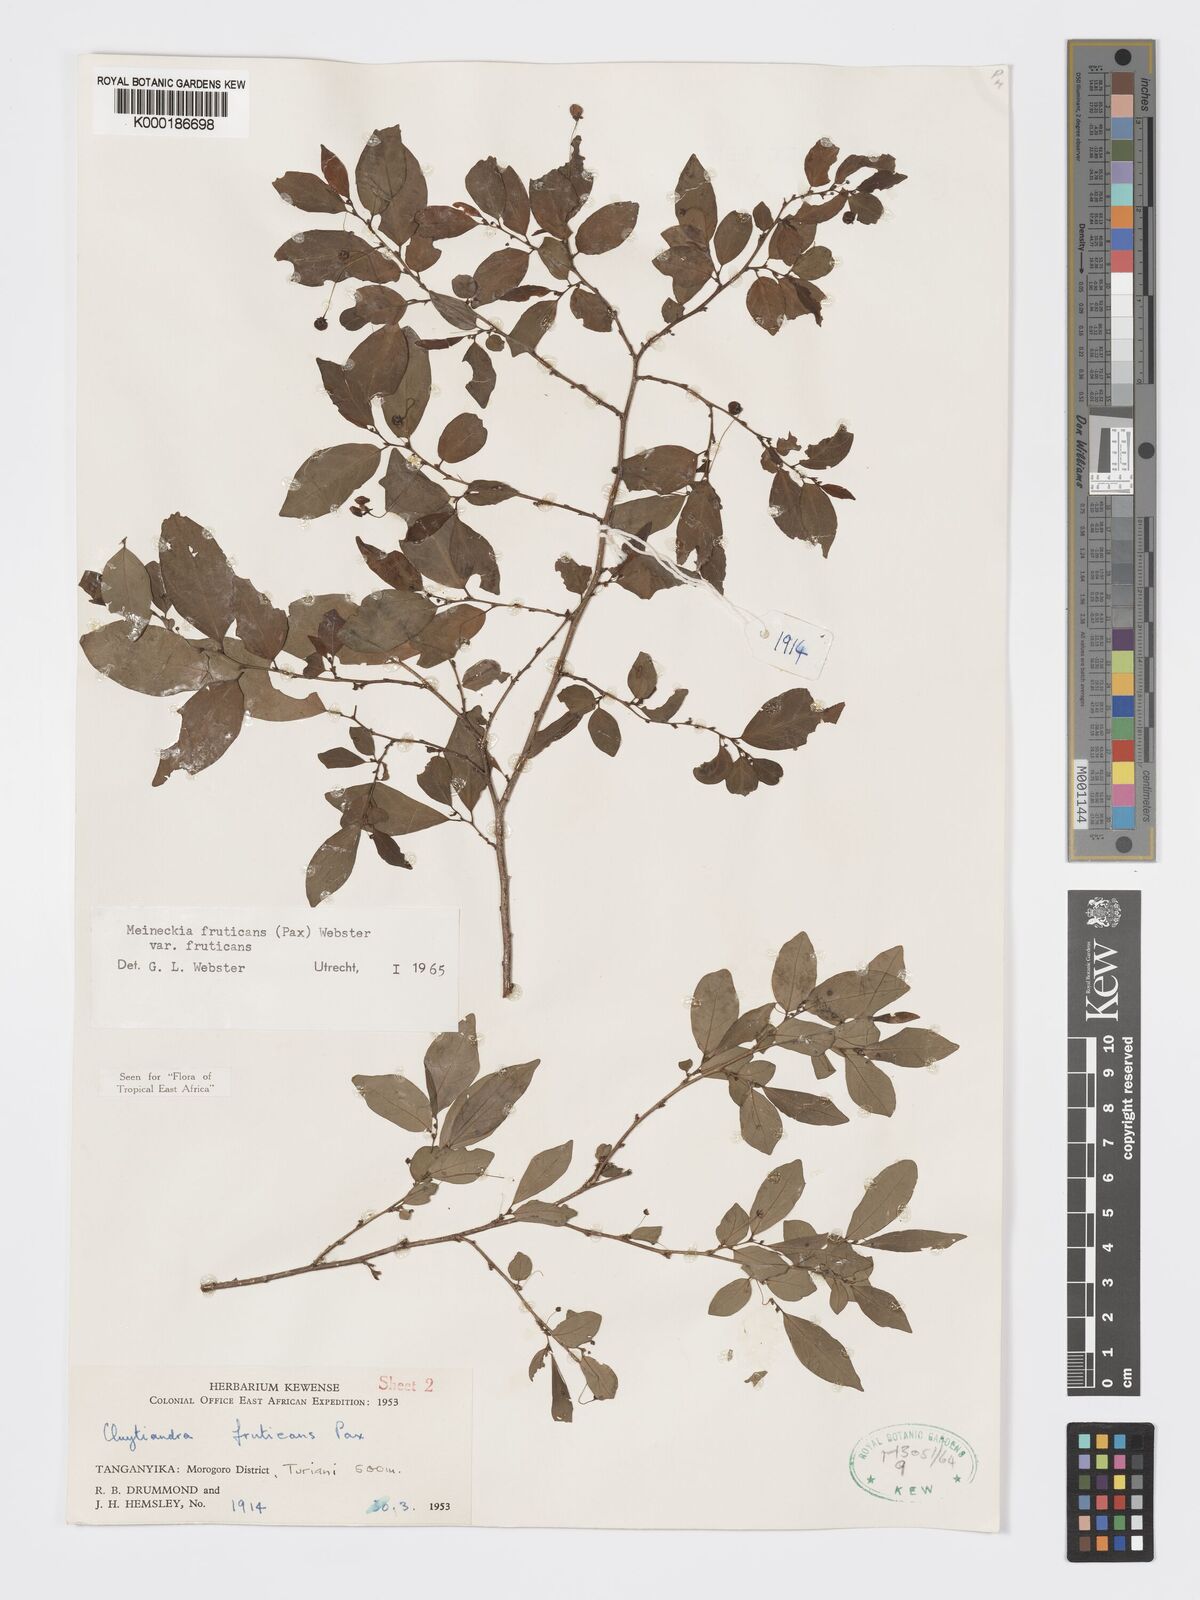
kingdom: Plantae
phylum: Tracheophyta
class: Magnoliopsida
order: Malpighiales
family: Phyllanthaceae
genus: Meineckia
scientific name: Meineckia fruticans
